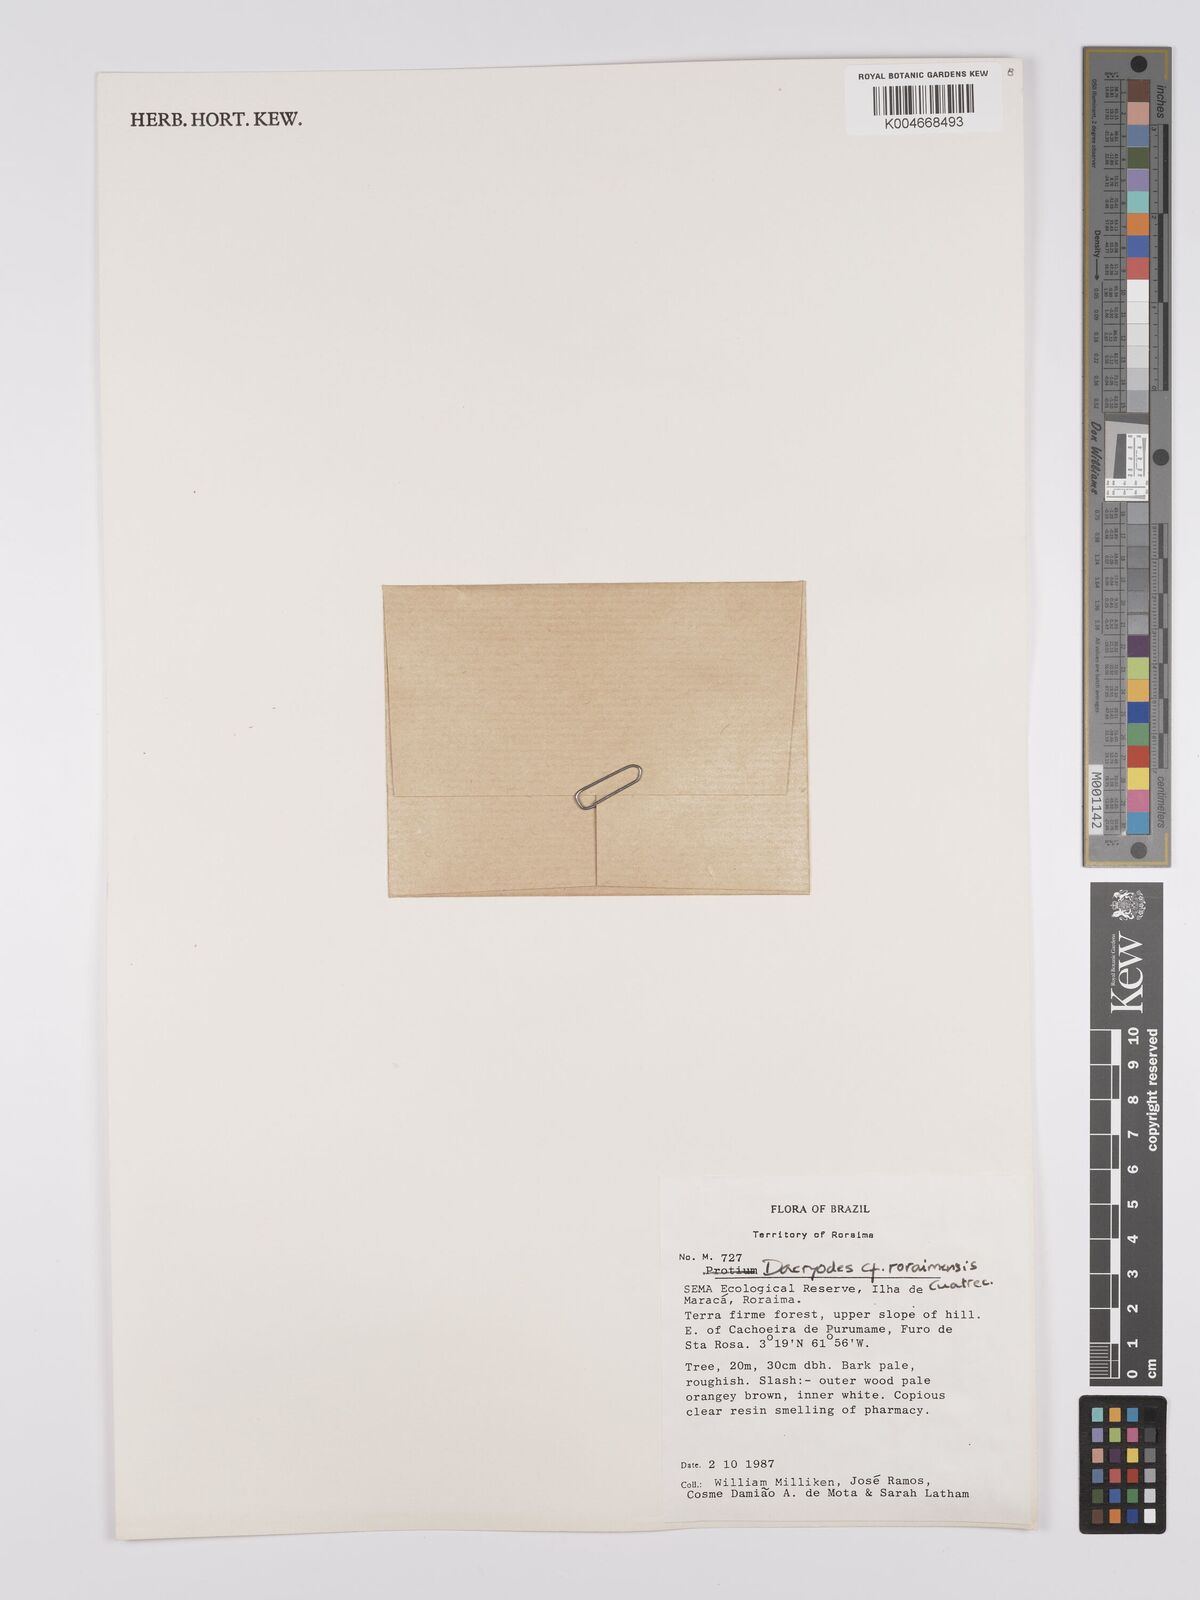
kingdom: Plantae
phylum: Tracheophyta
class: Magnoliopsida
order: Sapindales
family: Burseraceae
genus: Dacryodes
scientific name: Dacryodes roraimensis
